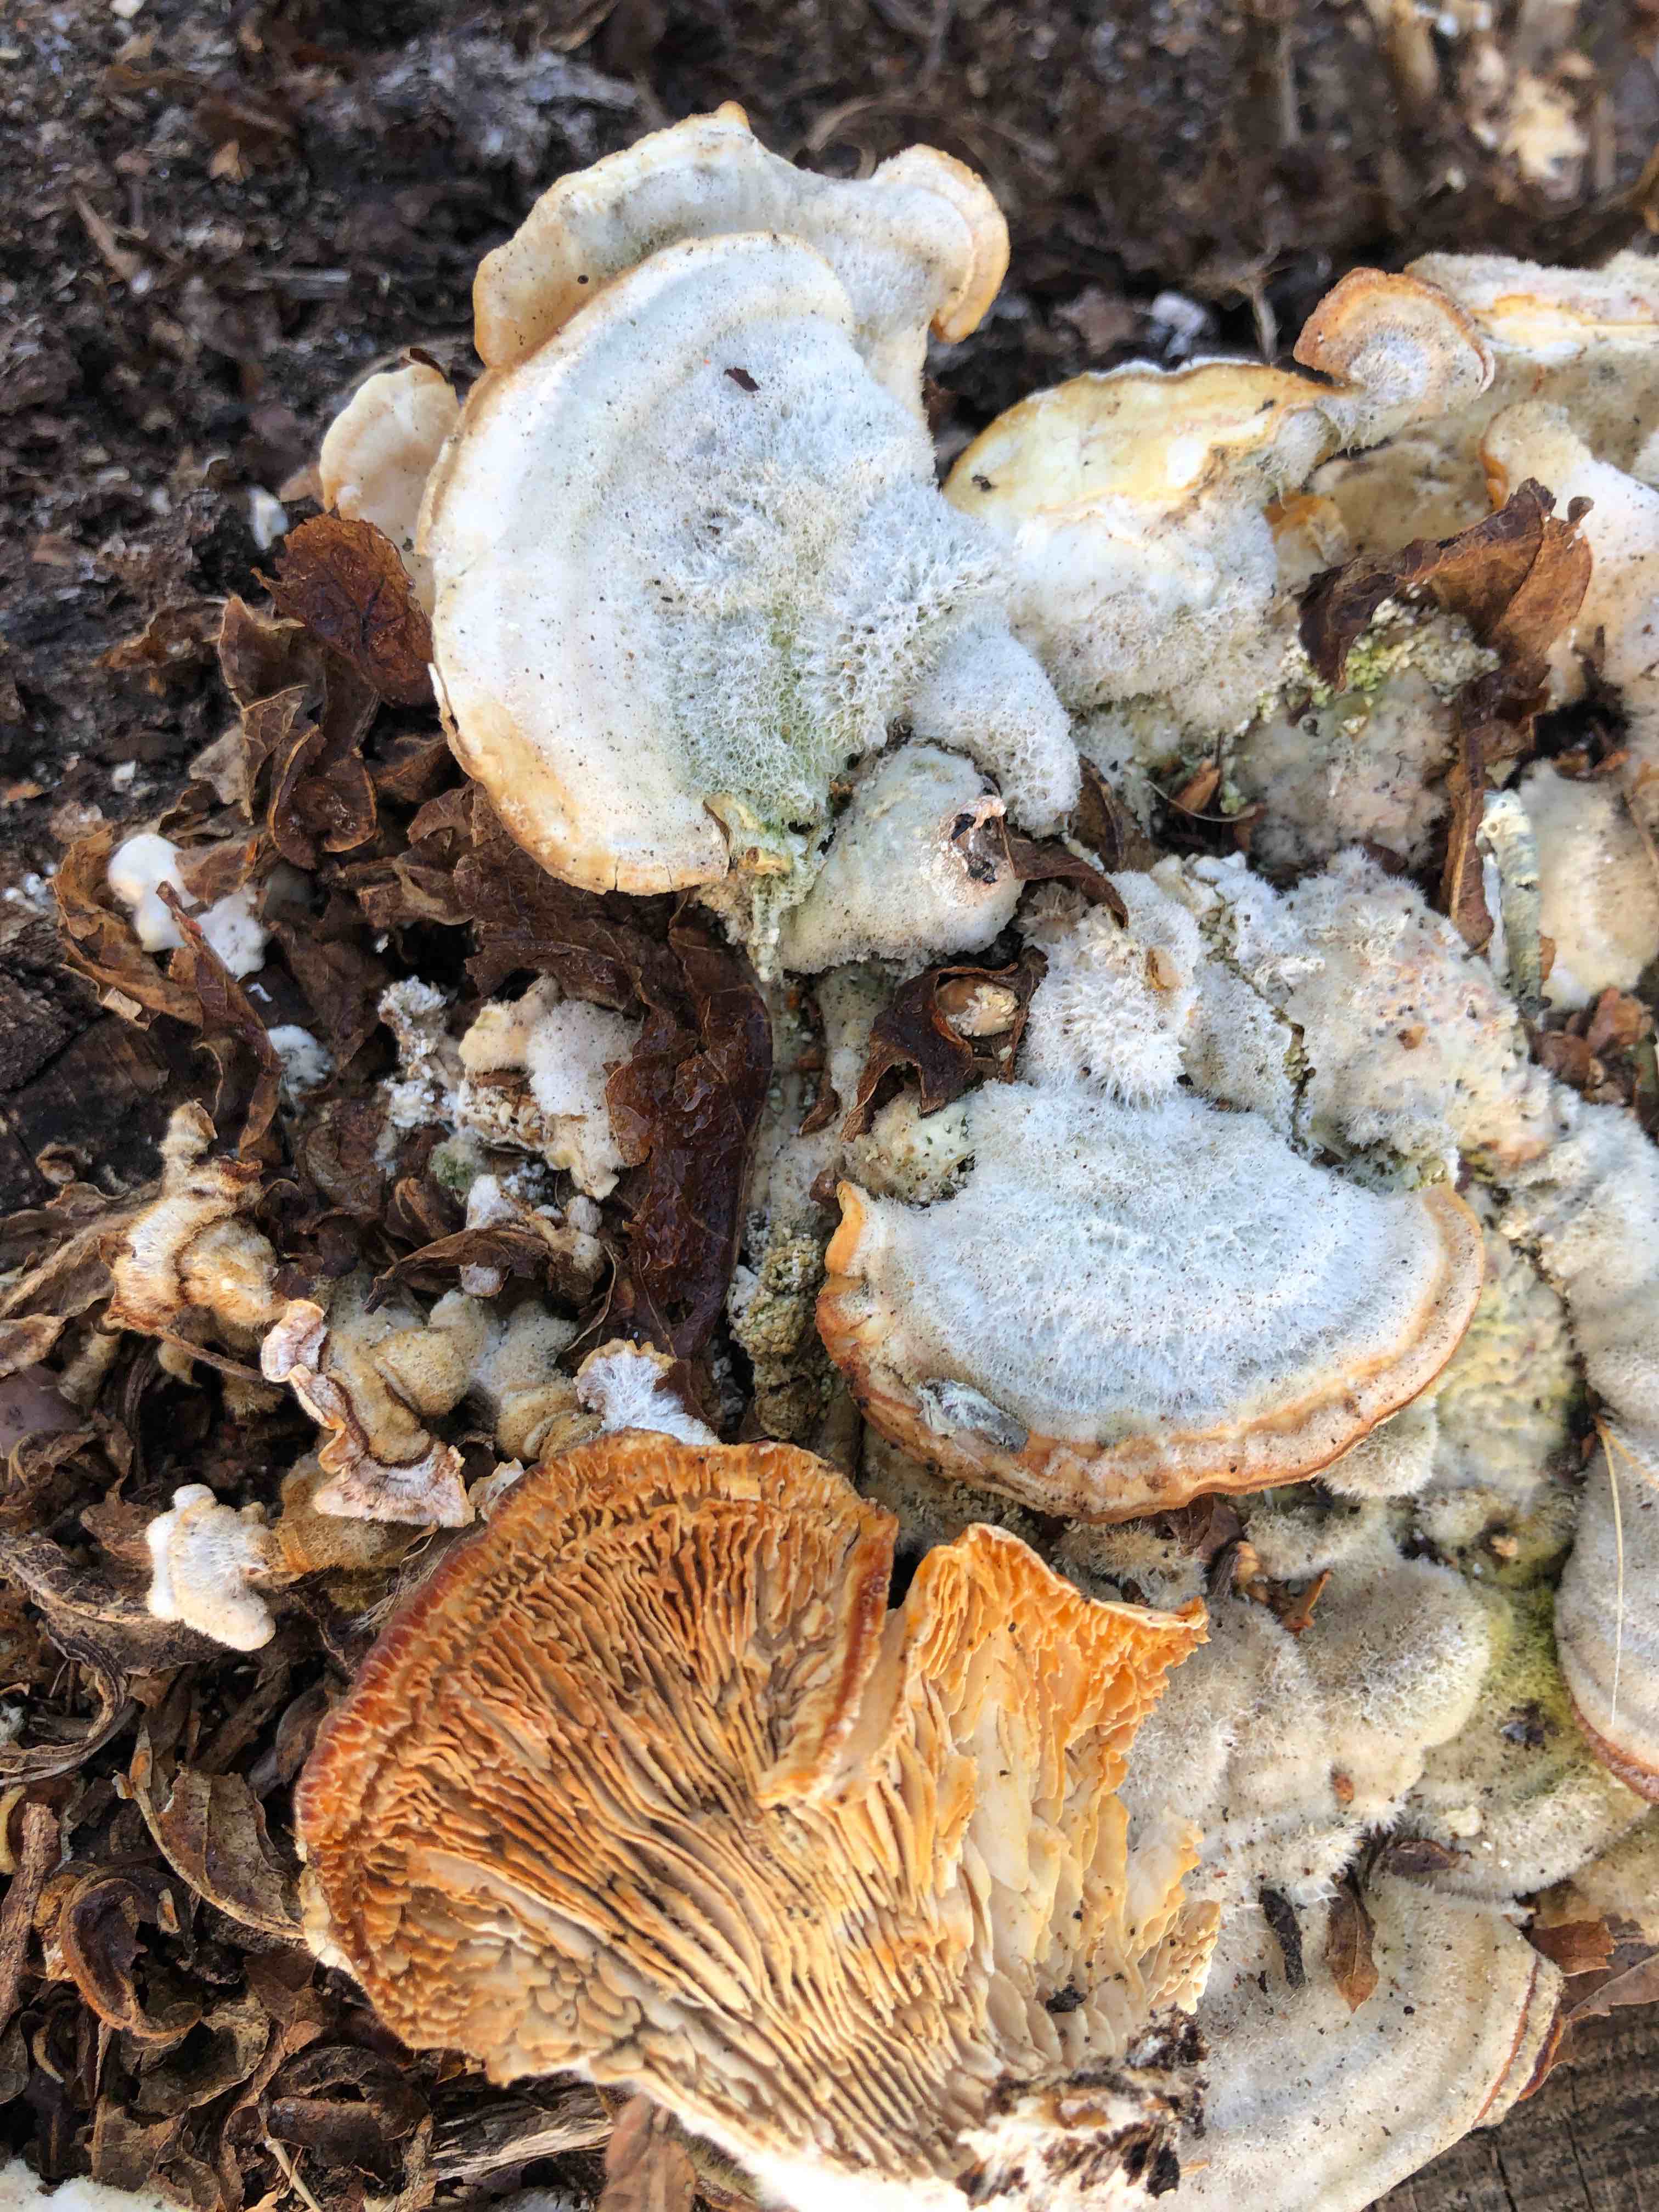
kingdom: Fungi
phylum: Basidiomycota
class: Agaricomycetes
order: Polyporales
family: Polyporaceae
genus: Lenzites
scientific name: Lenzites betulinus
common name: birke-læderporesvamp
